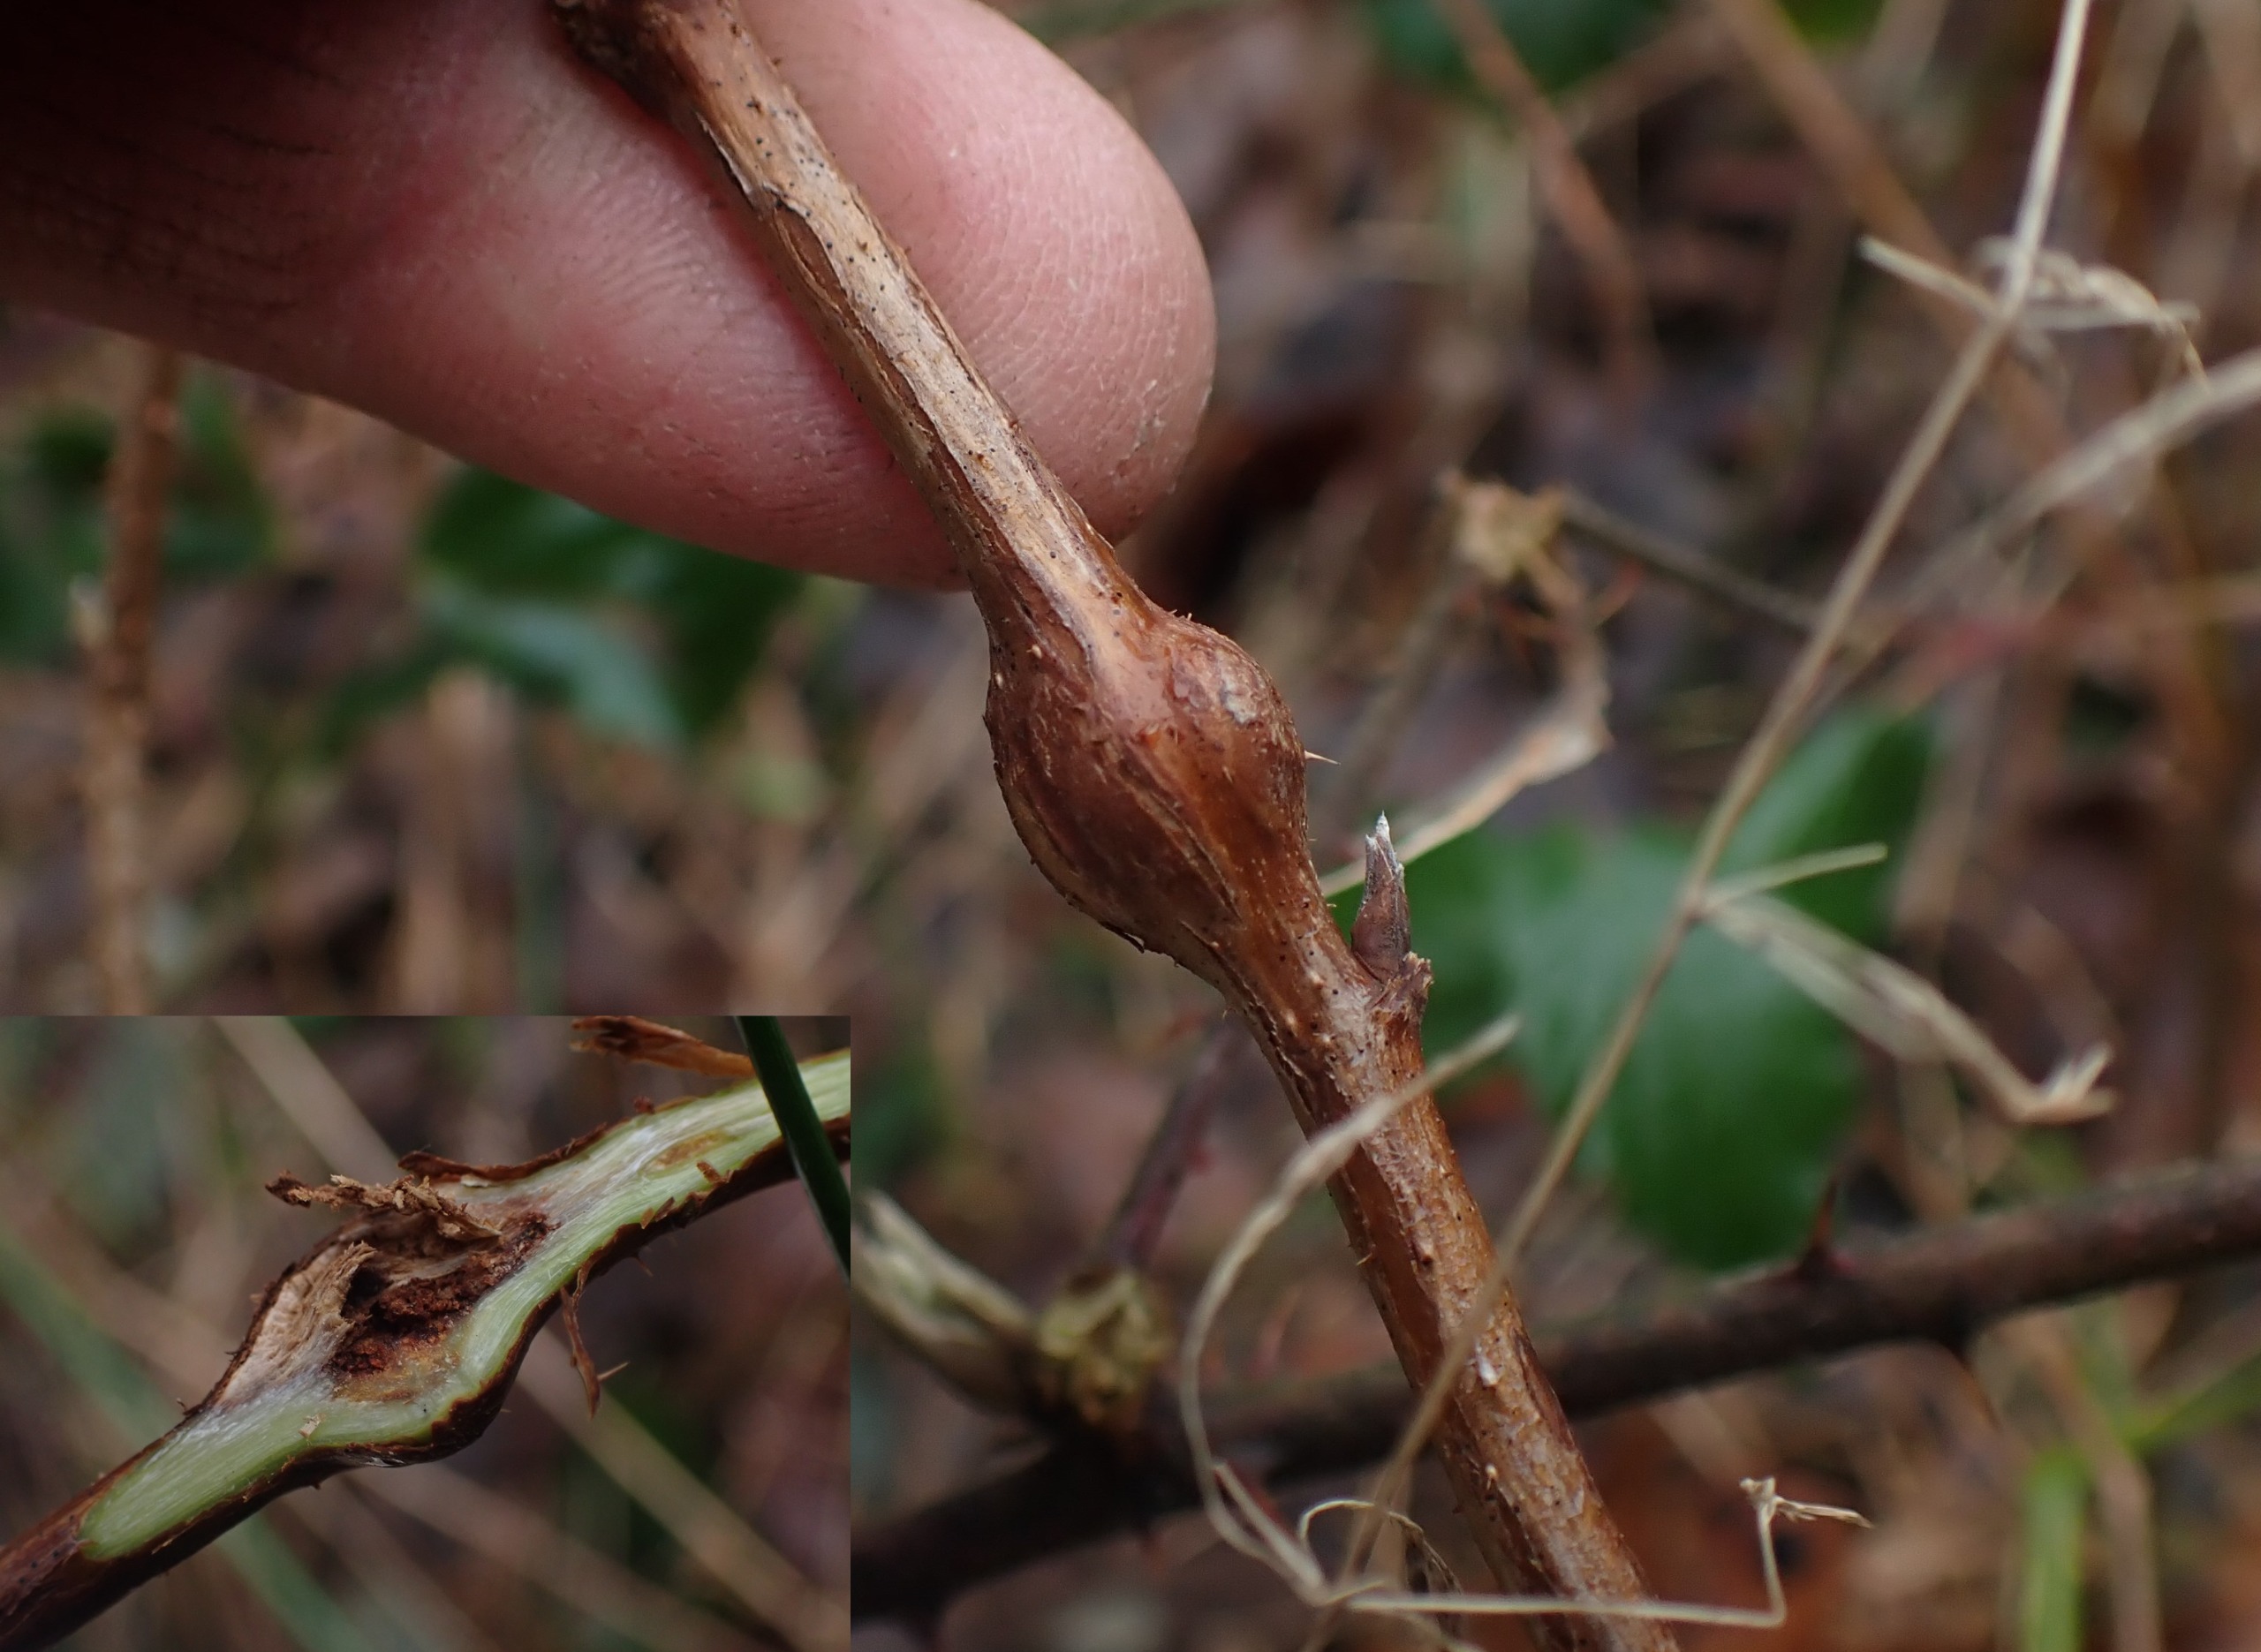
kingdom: Animalia
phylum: Arthropoda
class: Insecta
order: Diptera
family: Cecidomyiidae
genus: Lasioptera
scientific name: Lasioptera rubi
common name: Hindbærstængelgalmyg
